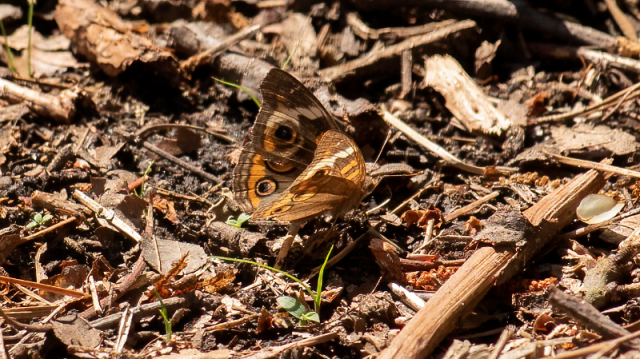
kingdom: Animalia
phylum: Arthropoda
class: Insecta
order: Lepidoptera
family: Nymphalidae
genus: Junonia
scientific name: Junonia coenia
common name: Common Buckeye
